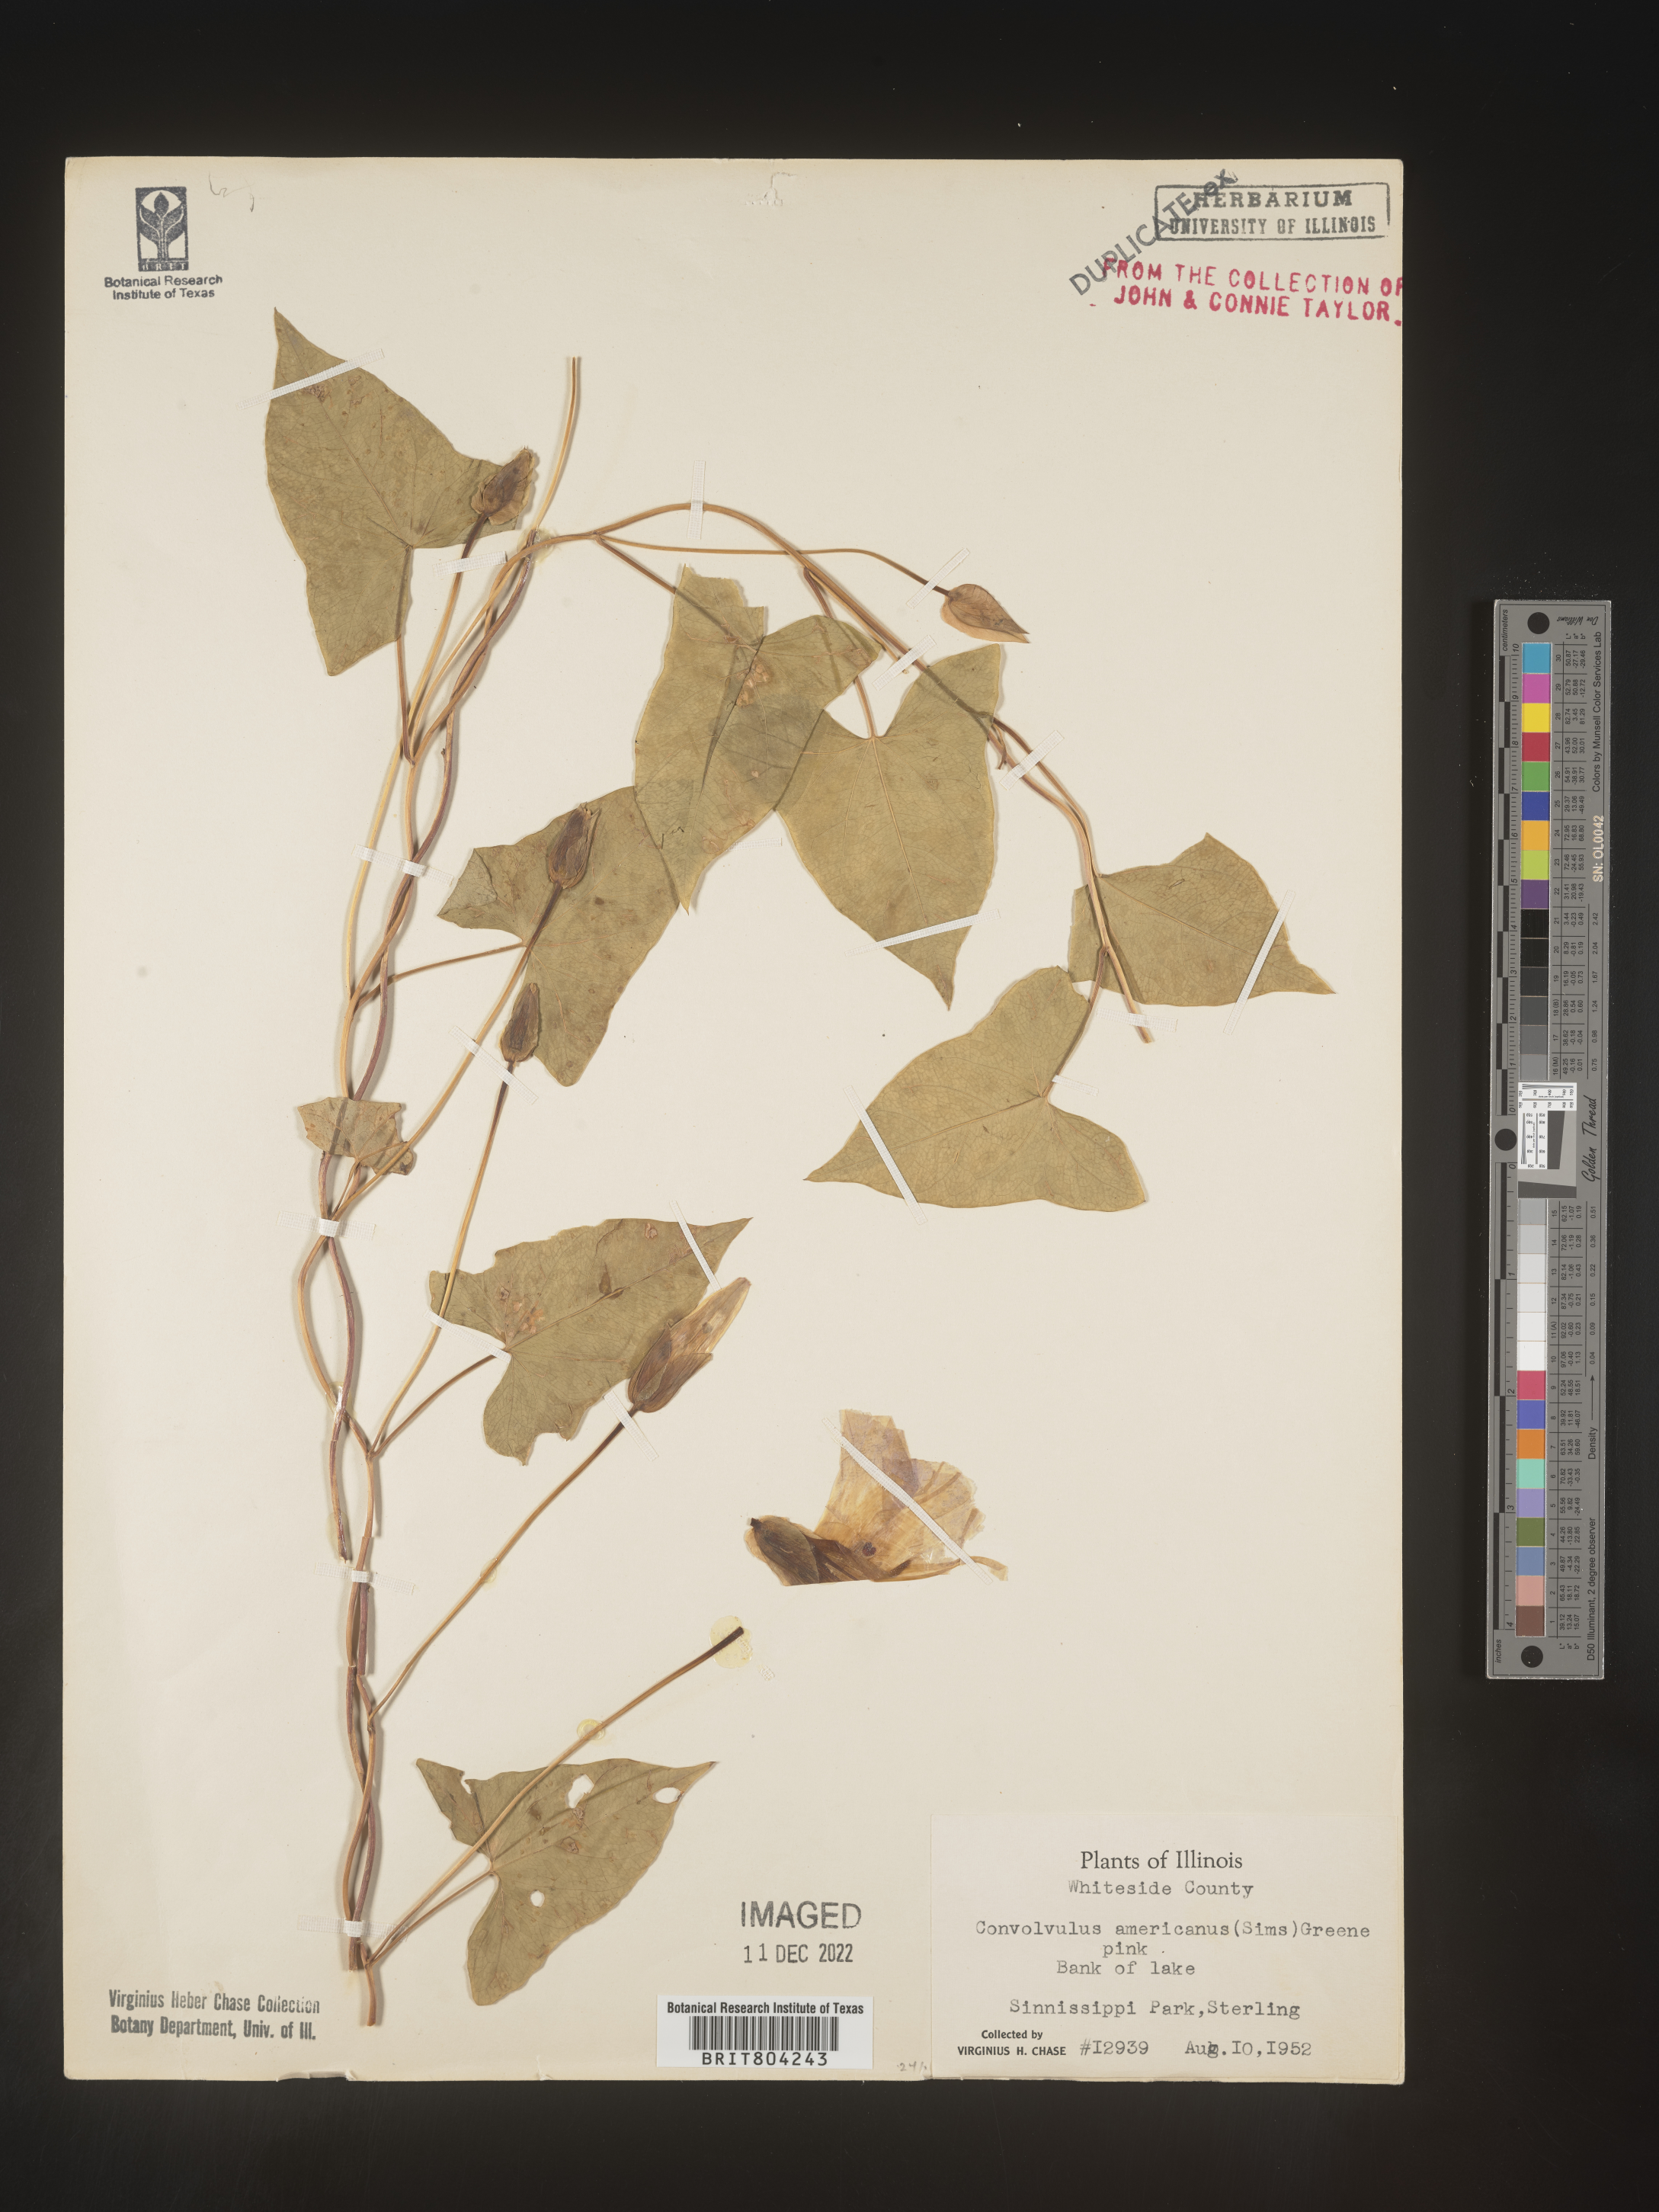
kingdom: Plantae
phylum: Tracheophyta
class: Magnoliopsida
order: Solanales
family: Convolvulaceae
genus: Convolvulus
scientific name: Convolvulus
